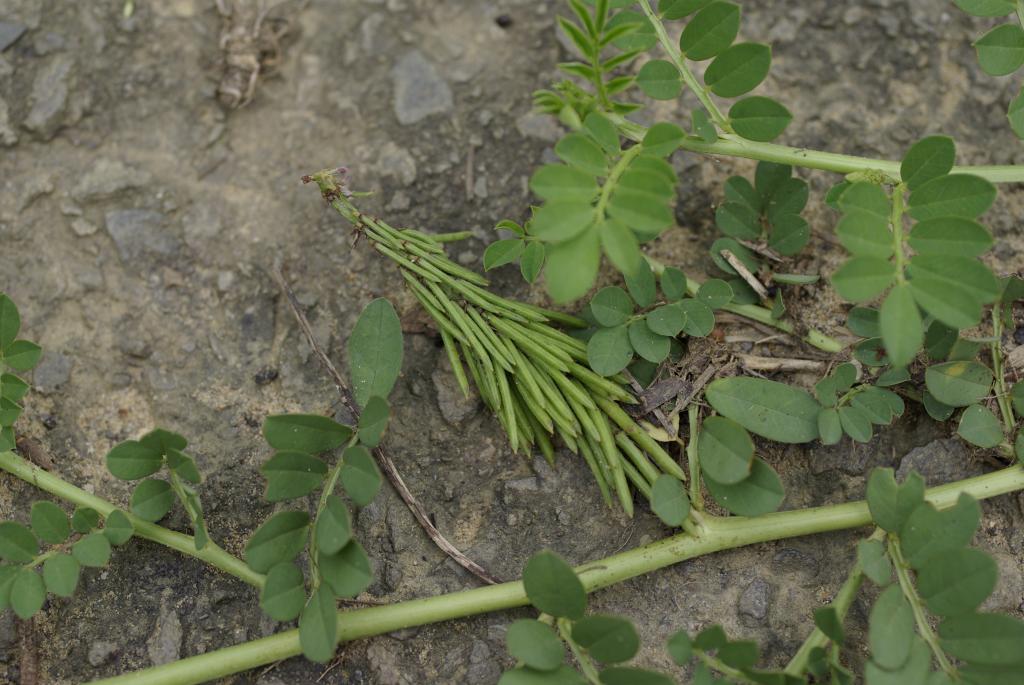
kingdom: Plantae
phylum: Tracheophyta
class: Magnoliopsida
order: Fabales
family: Fabaceae
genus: Indigofera
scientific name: Indigofera spicata
